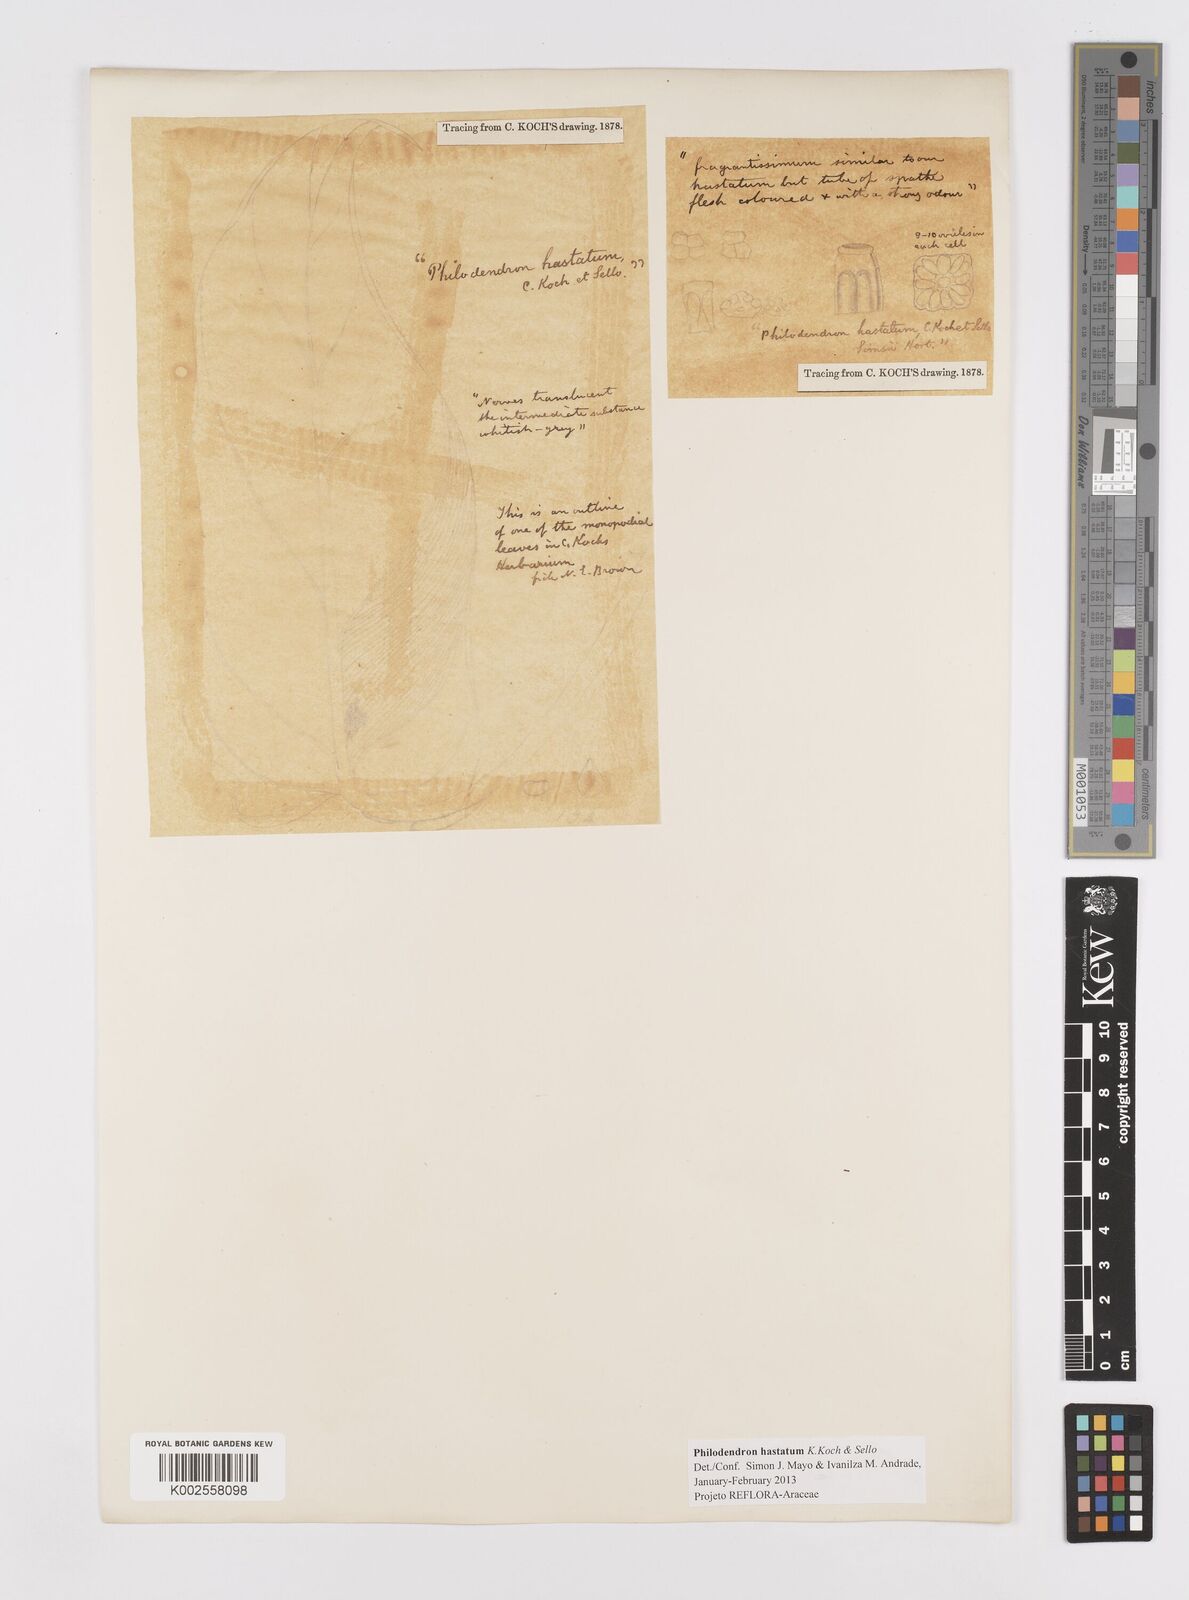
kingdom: Plantae
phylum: Tracheophyta
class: Liliopsida
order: Alismatales
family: Araceae
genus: Philodendron
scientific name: Philodendron hastatum
